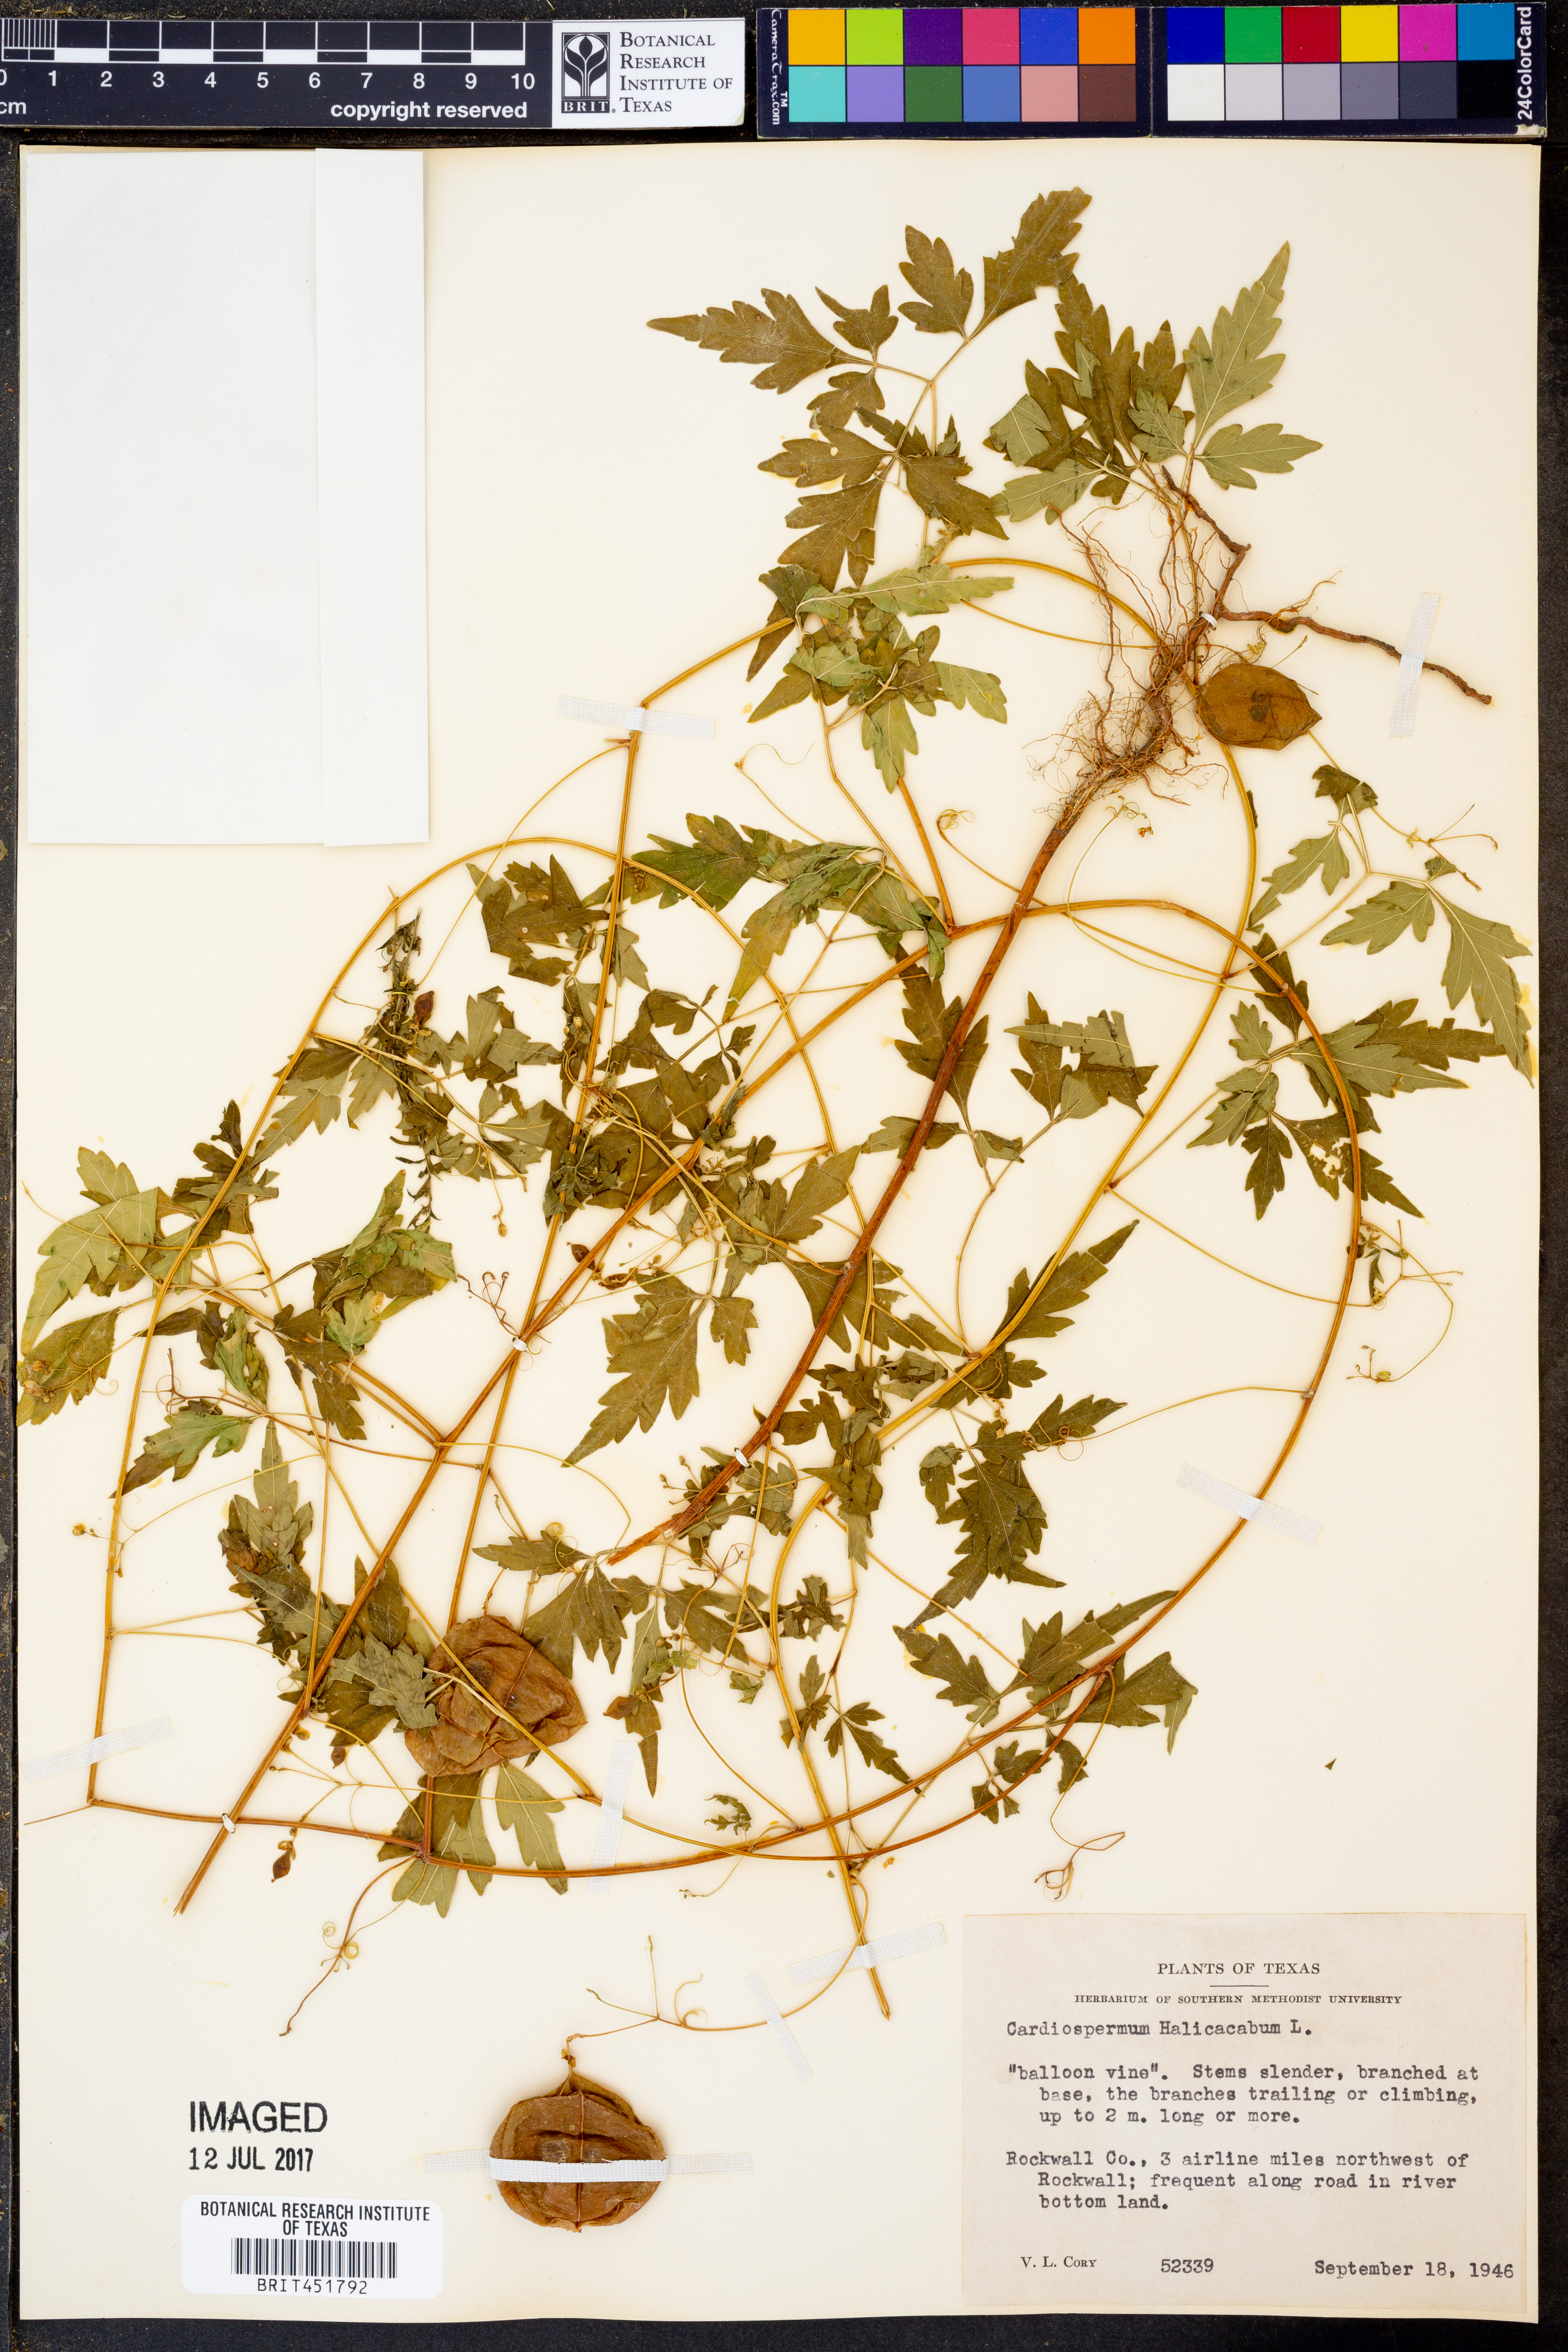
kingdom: Plantae
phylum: Tracheophyta
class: Magnoliopsida
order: Sapindales
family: Sapindaceae
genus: Cardiospermum
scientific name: Cardiospermum halicacabum
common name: Balloon vine
